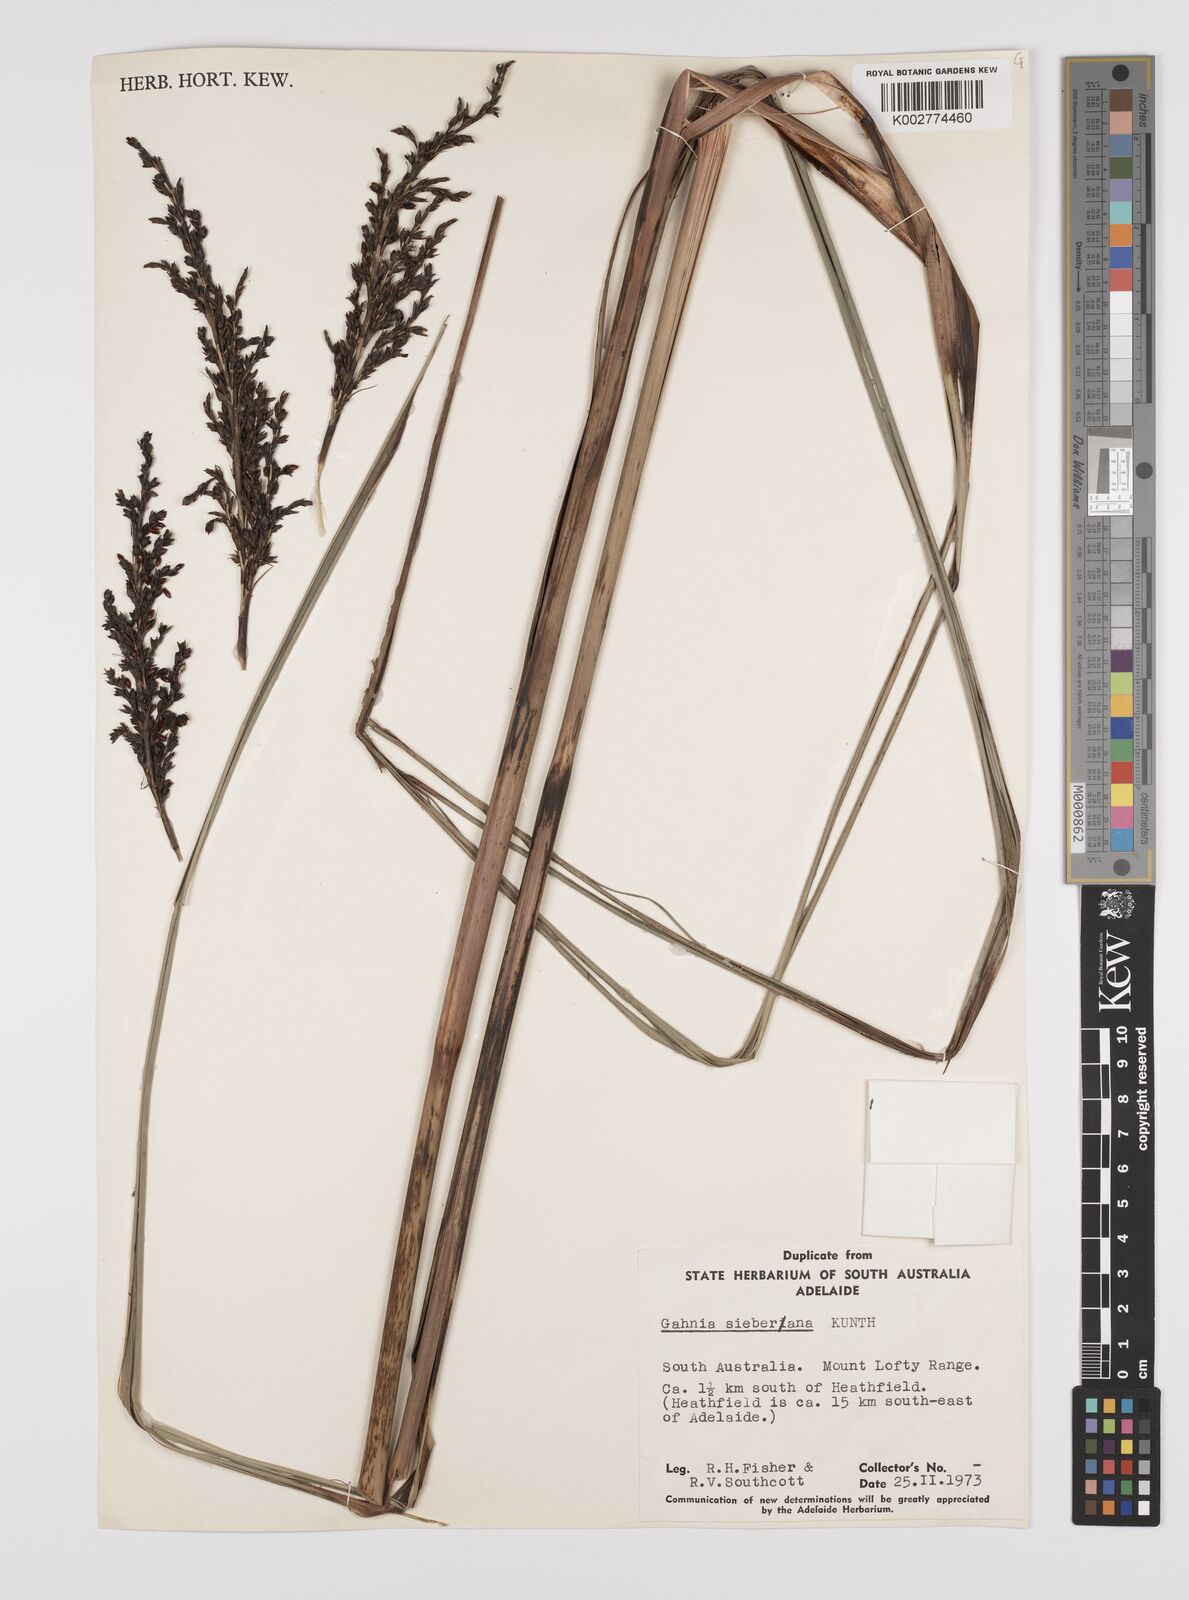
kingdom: Plantae
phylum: Tracheophyta
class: Liliopsida
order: Poales
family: Cyperaceae
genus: Gahnia
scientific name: Gahnia sieberiana
